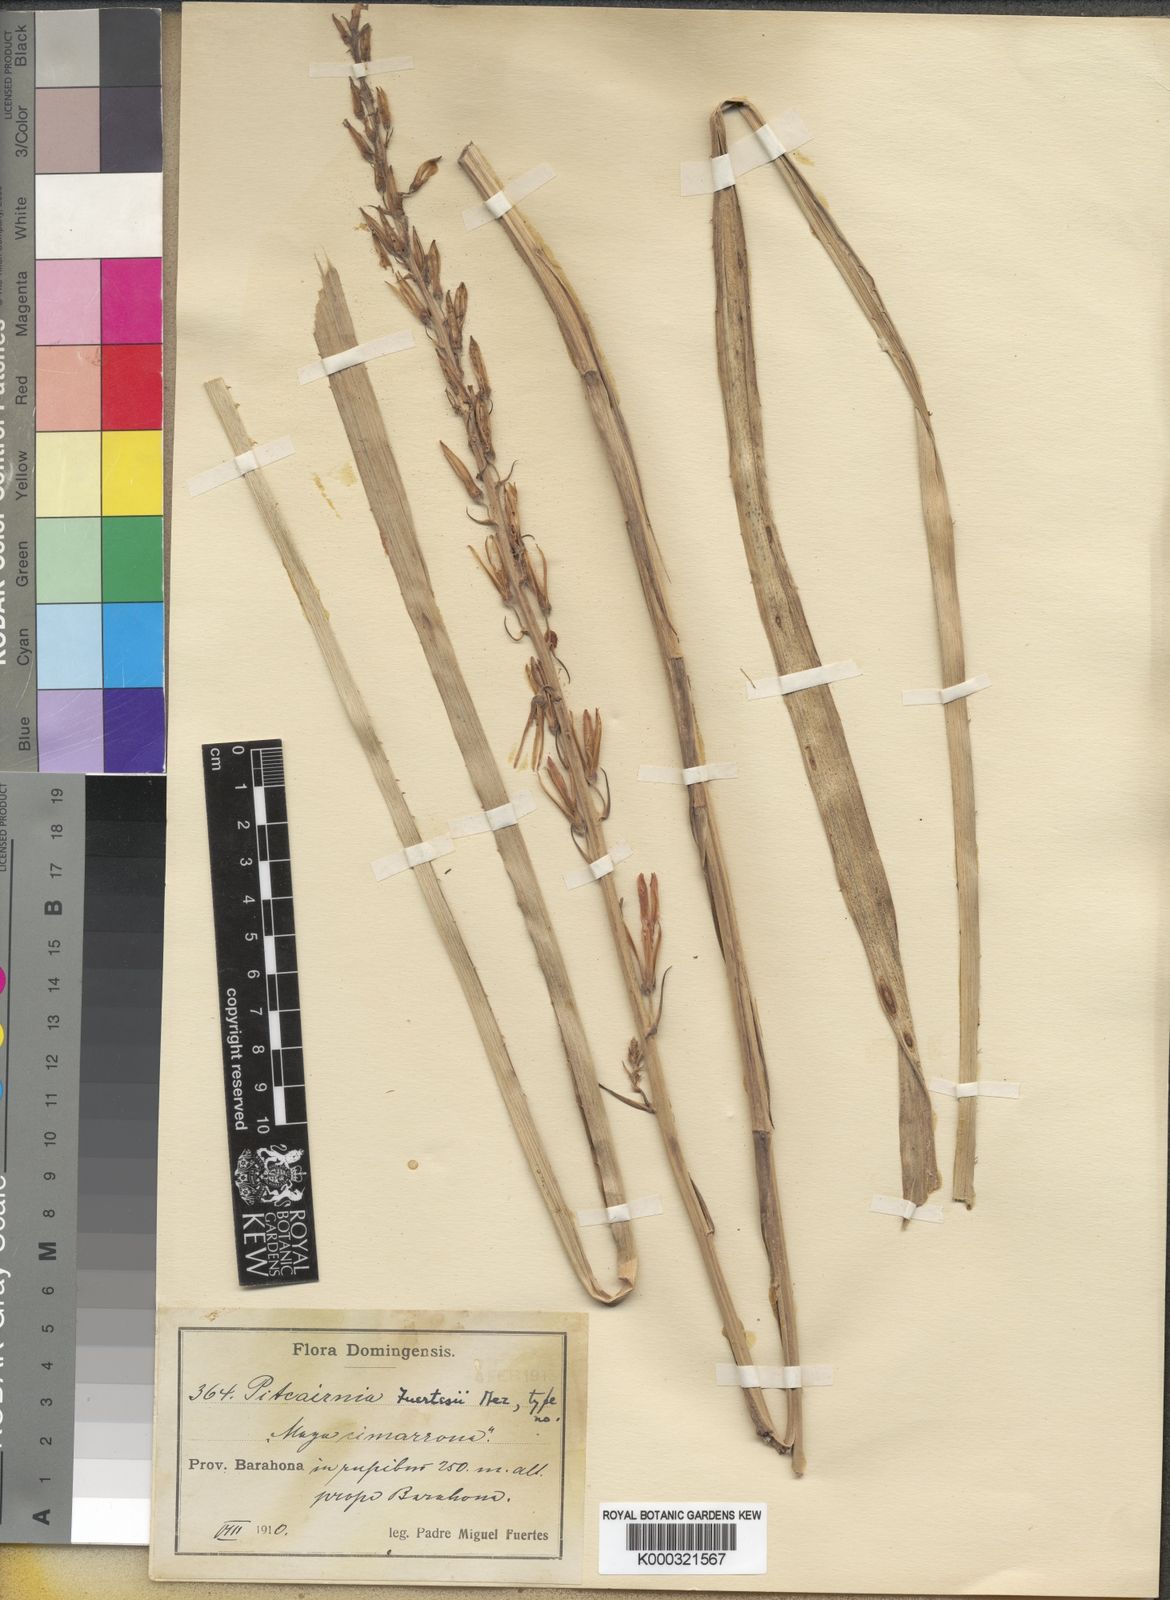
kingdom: Plantae
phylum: Tracheophyta
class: Liliopsida
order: Poales
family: Bromeliaceae
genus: Pitcairnia
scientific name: Pitcairnia fuertesii
